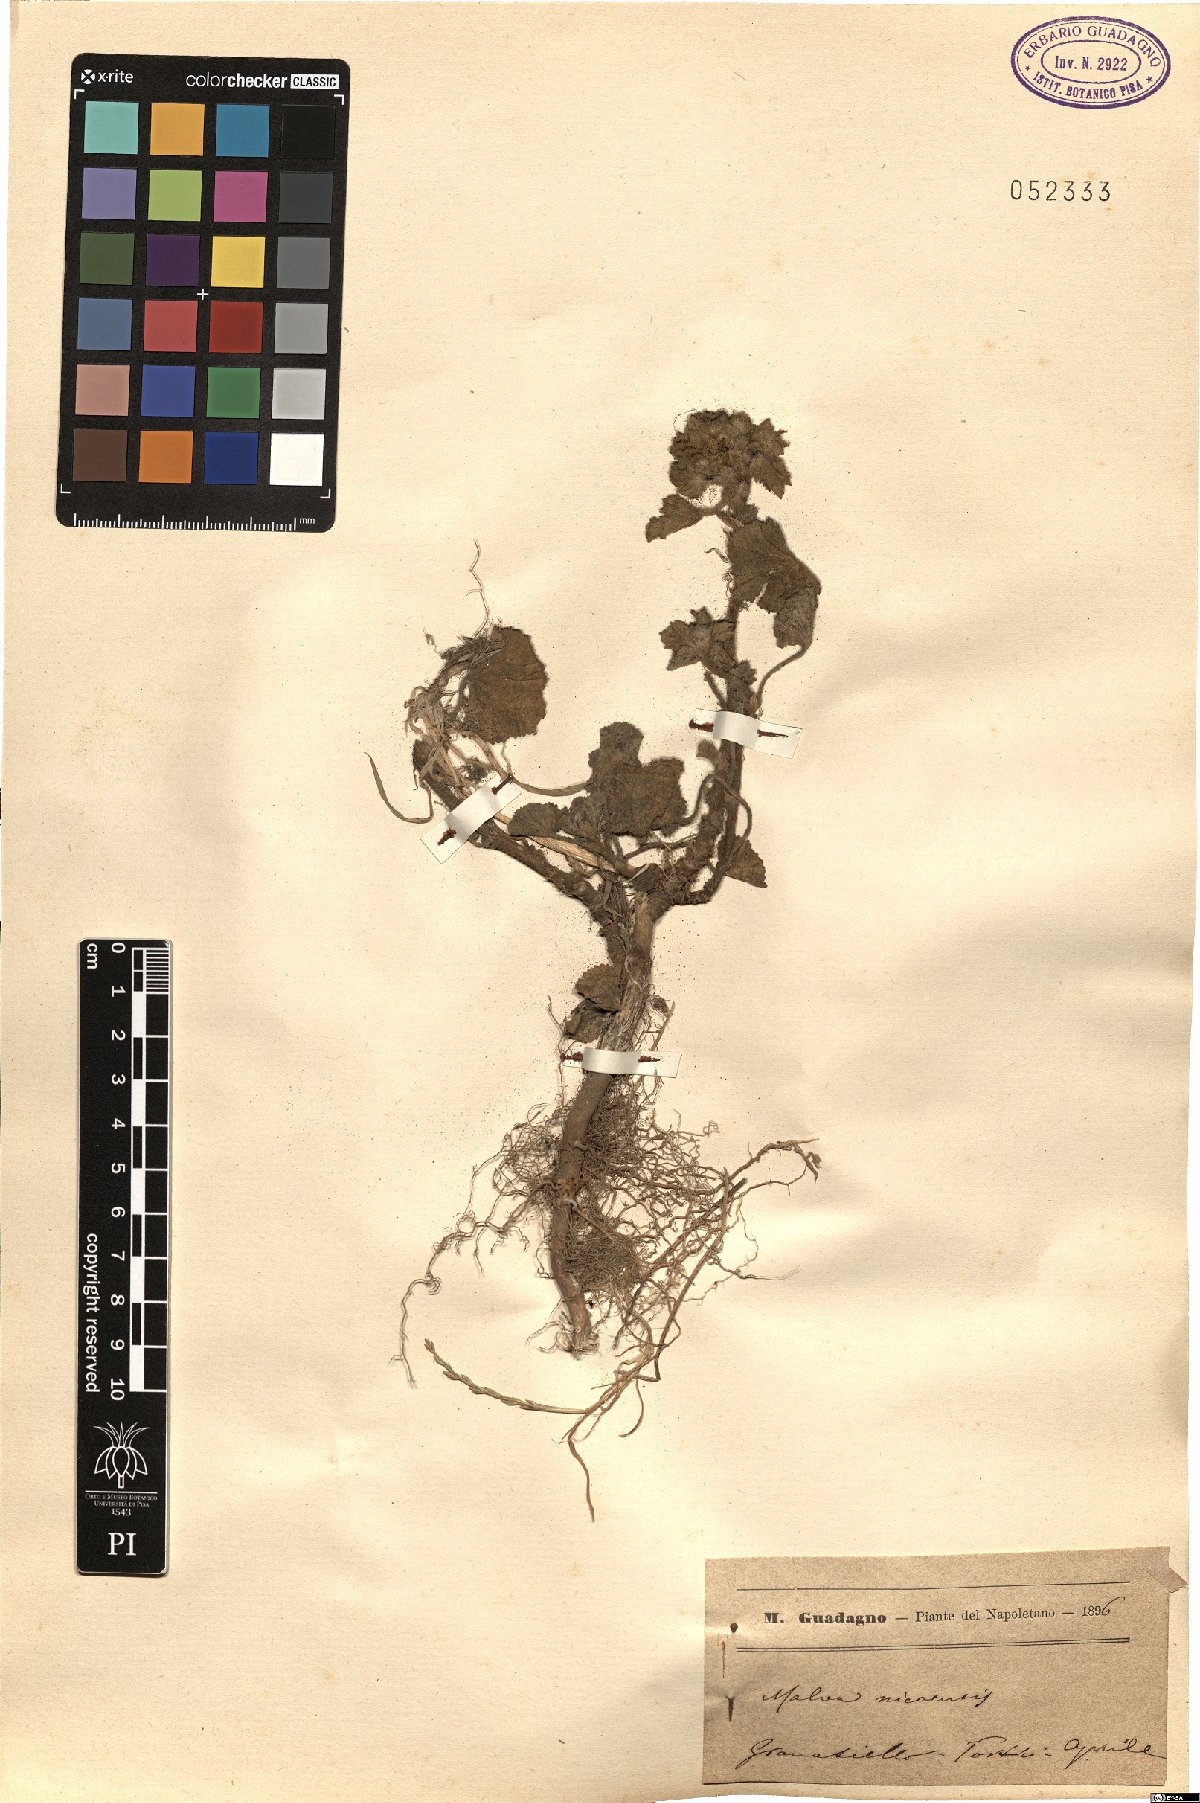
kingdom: Plantae
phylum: Tracheophyta
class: Magnoliopsida
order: Malvales
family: Malvaceae
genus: Malva
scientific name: Malva nicaeensis
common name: French mallow
